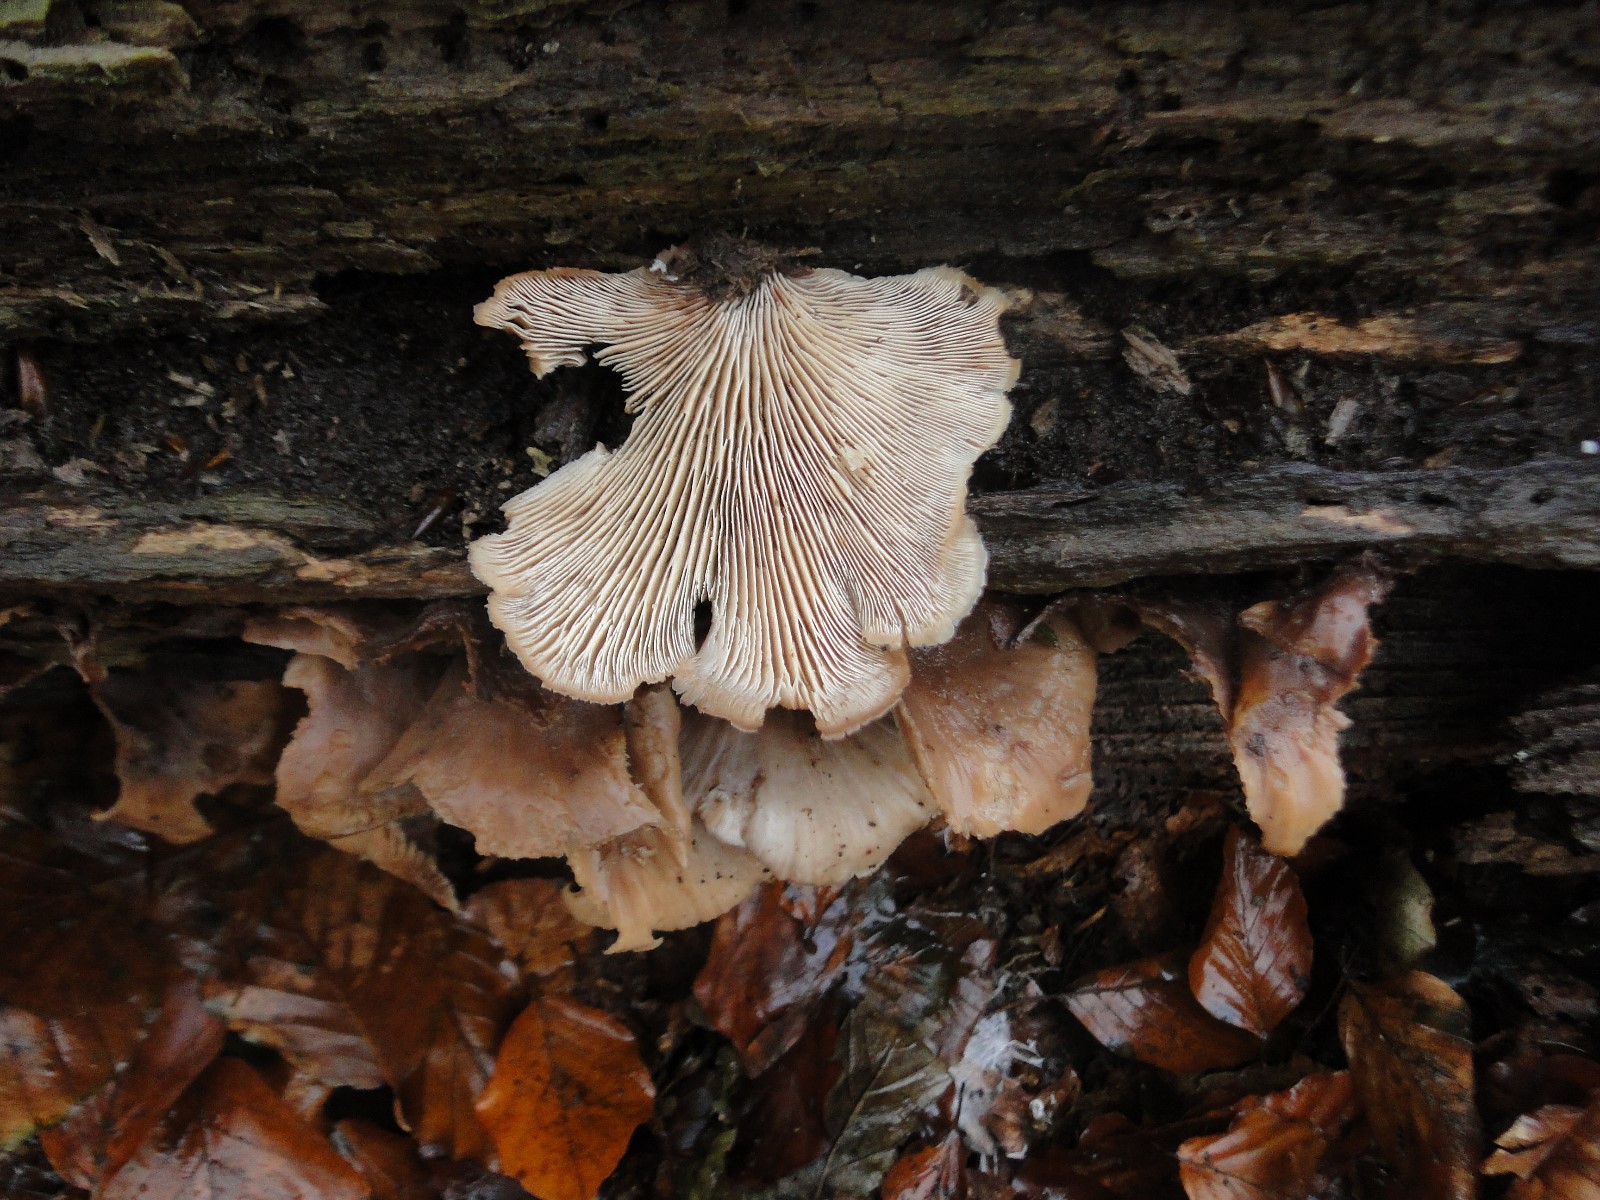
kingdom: Fungi
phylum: Basidiomycota
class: Agaricomycetes
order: Russulales
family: Auriscalpiaceae
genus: Lentinellus
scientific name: Lentinellus ursinus
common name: børstehåret savbladhat
